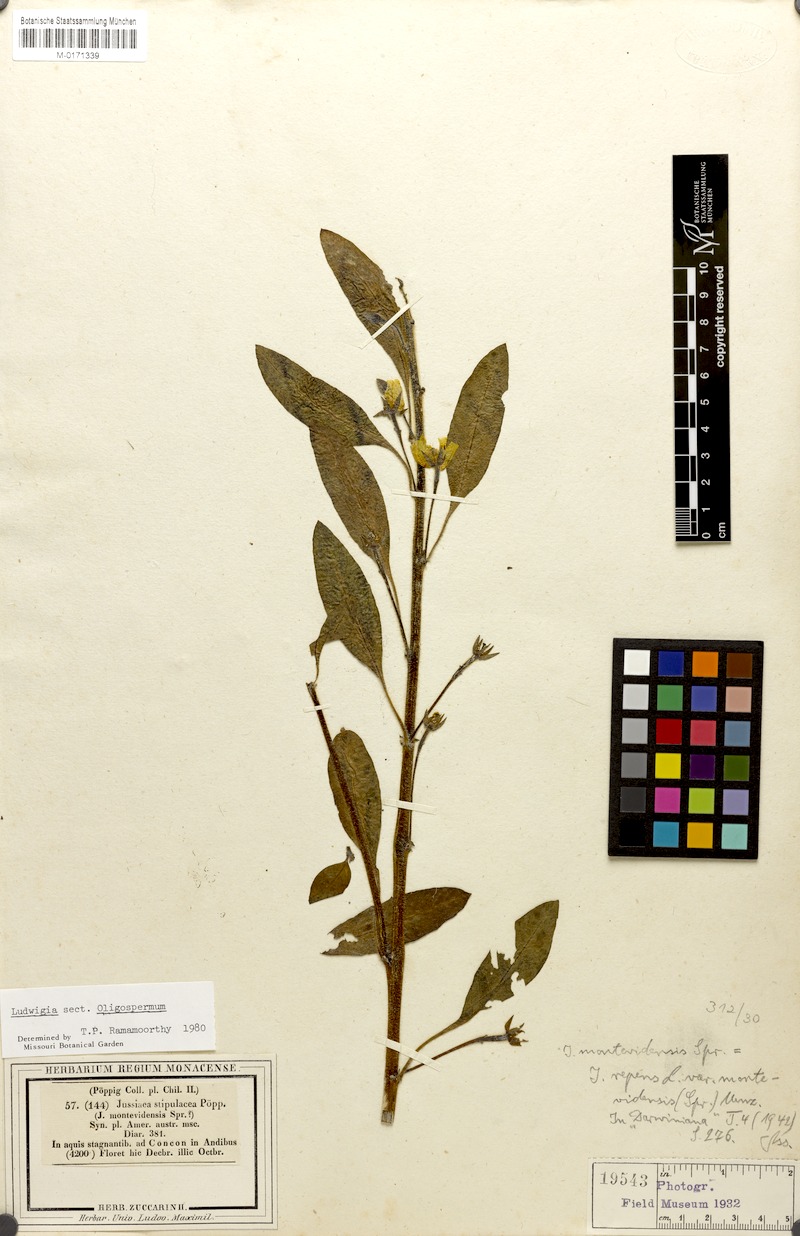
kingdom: Plantae
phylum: Tracheophyta
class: Magnoliopsida
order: Myrtales
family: Onagraceae
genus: Ludwigia
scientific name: Ludwigia peploides
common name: Floating primrose-willow
